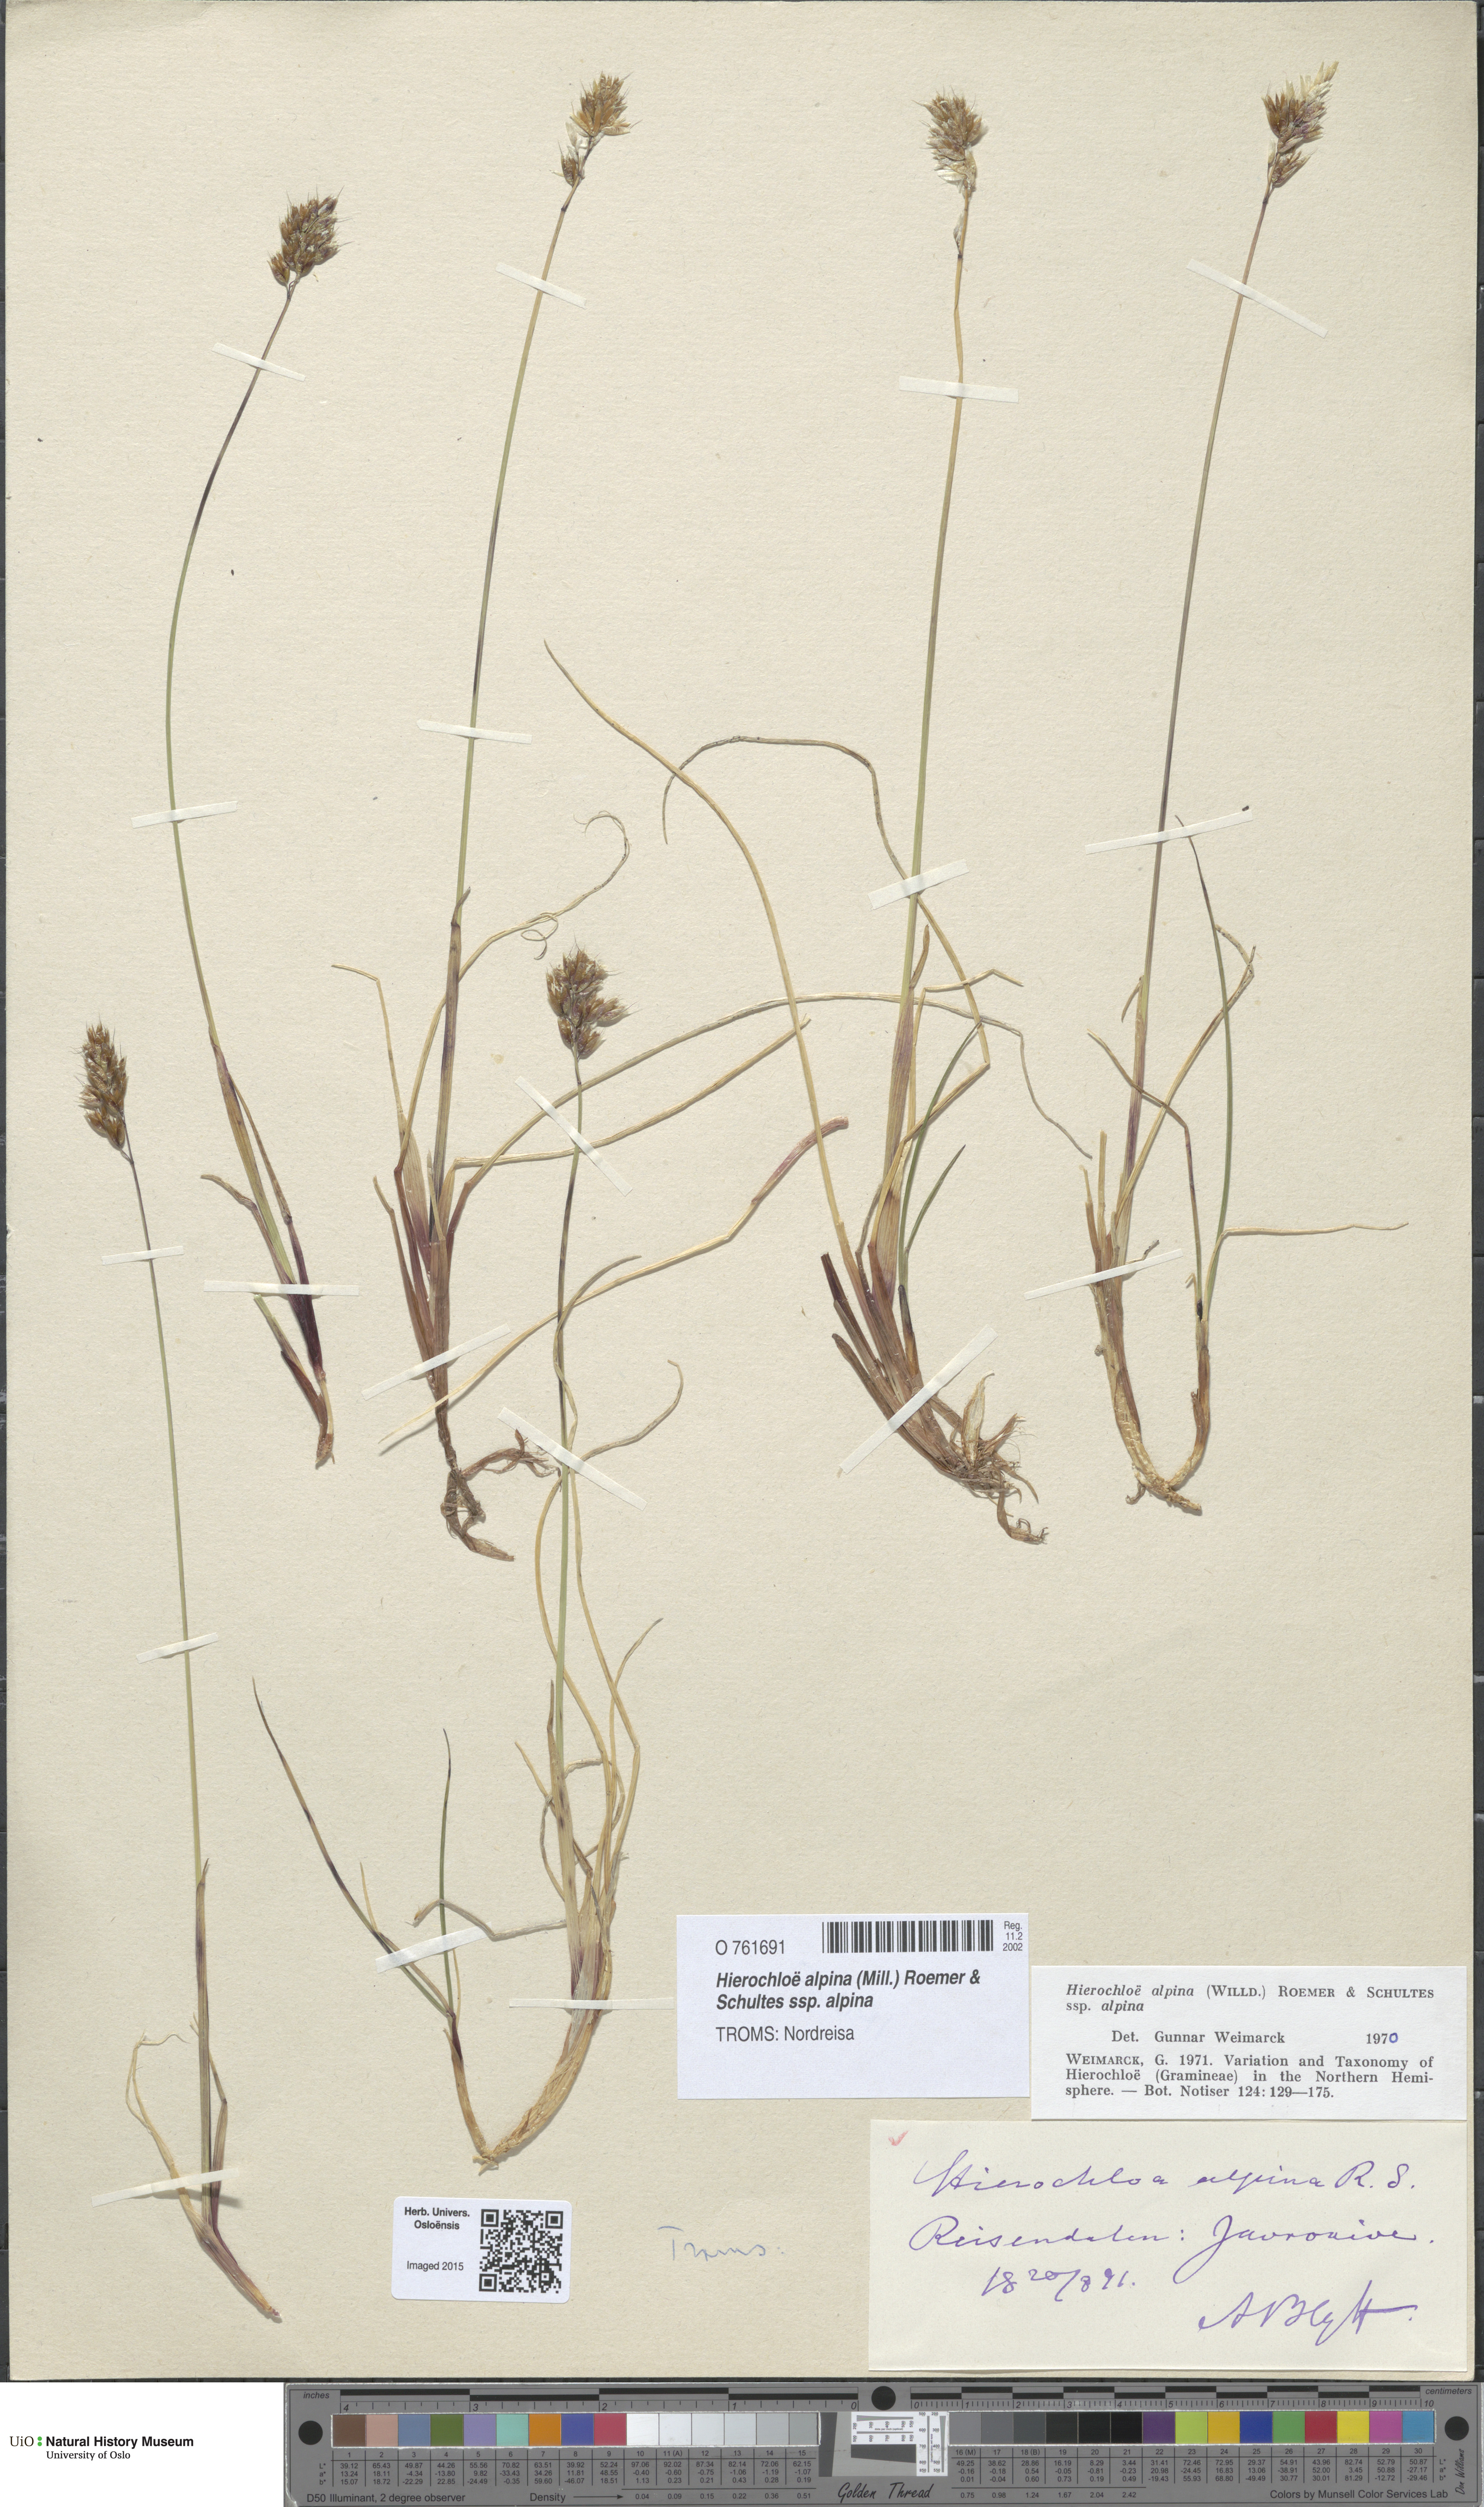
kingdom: Plantae
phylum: Tracheophyta
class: Liliopsida
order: Poales
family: Poaceae
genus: Anthoxanthum
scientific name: Anthoxanthum monticola
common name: Alpine sweetgrass
